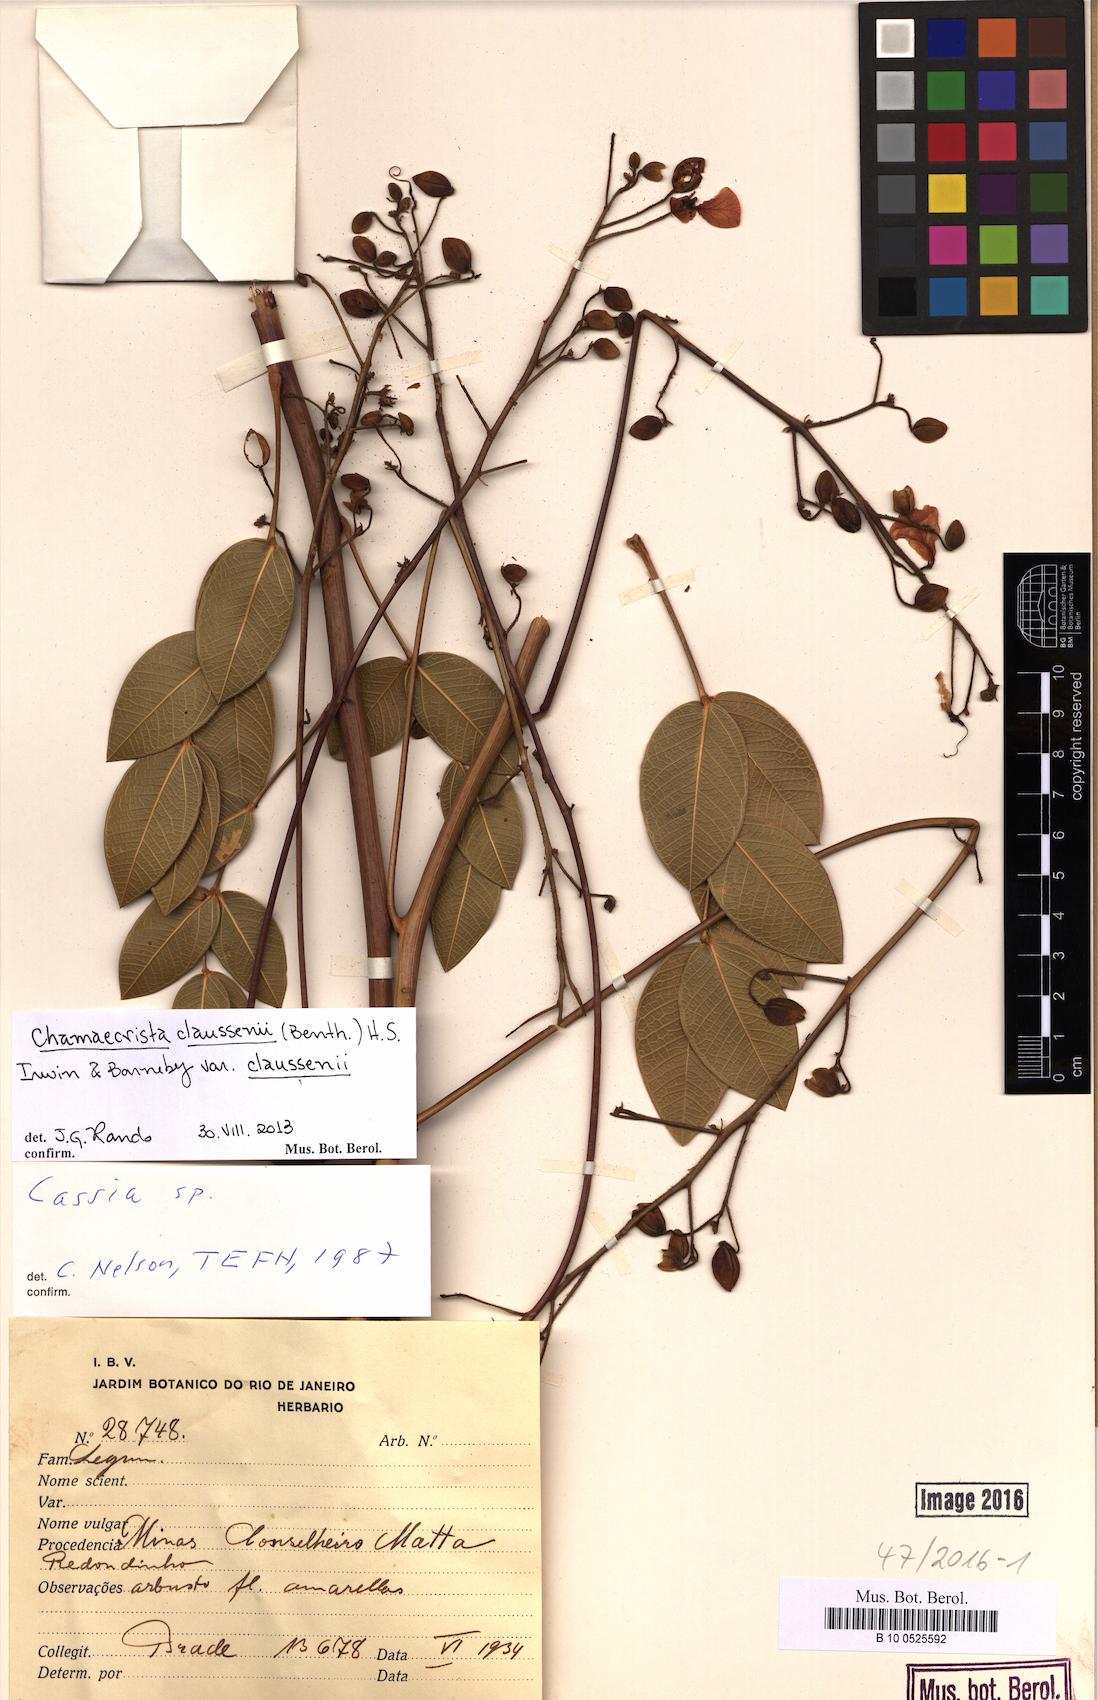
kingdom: Plantae
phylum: Tracheophyta
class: Magnoliopsida
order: Fabales
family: Fabaceae
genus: Chamaecrista
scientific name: Chamaecrista claussenii
